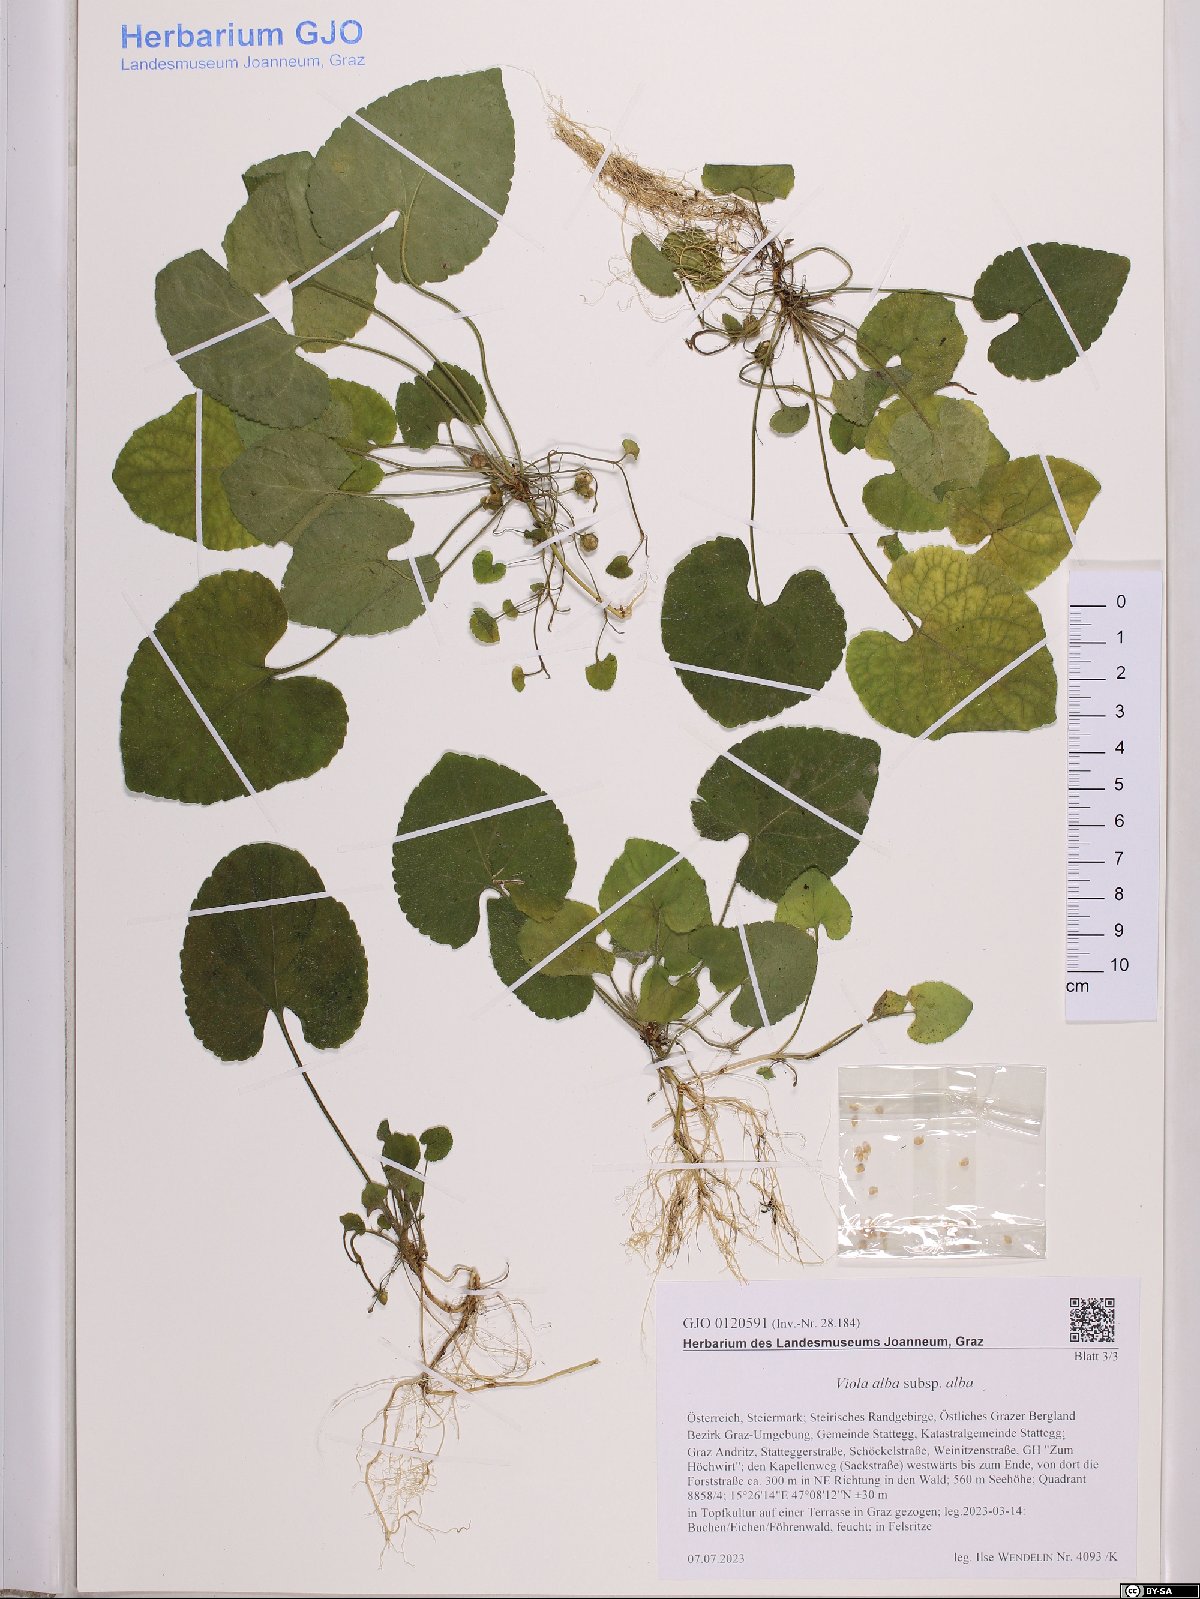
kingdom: Plantae
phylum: Tracheophyta
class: Magnoliopsida
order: Malpighiales
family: Violaceae
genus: Viola
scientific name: Viola alba
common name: White violet
